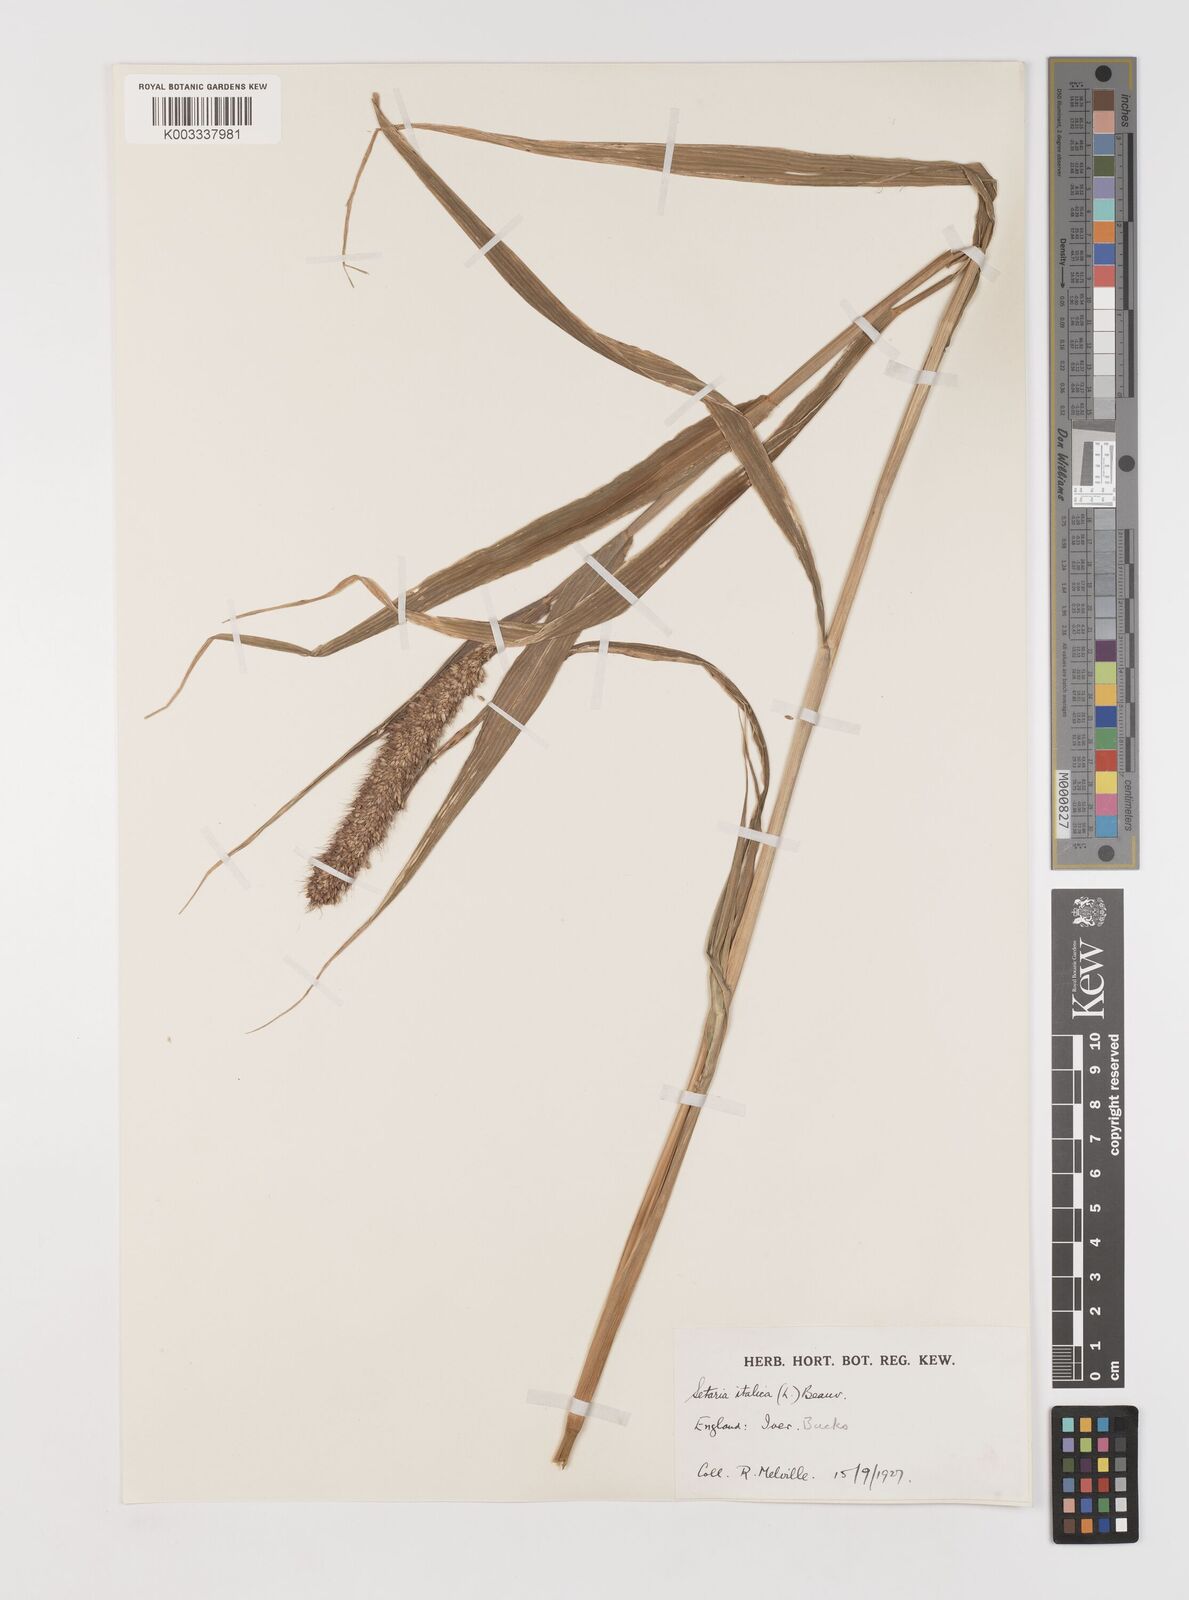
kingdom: Plantae
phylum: Tracheophyta
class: Liliopsida
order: Poales
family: Poaceae
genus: Setaria
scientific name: Setaria italica
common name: Foxtail bristle-grass
